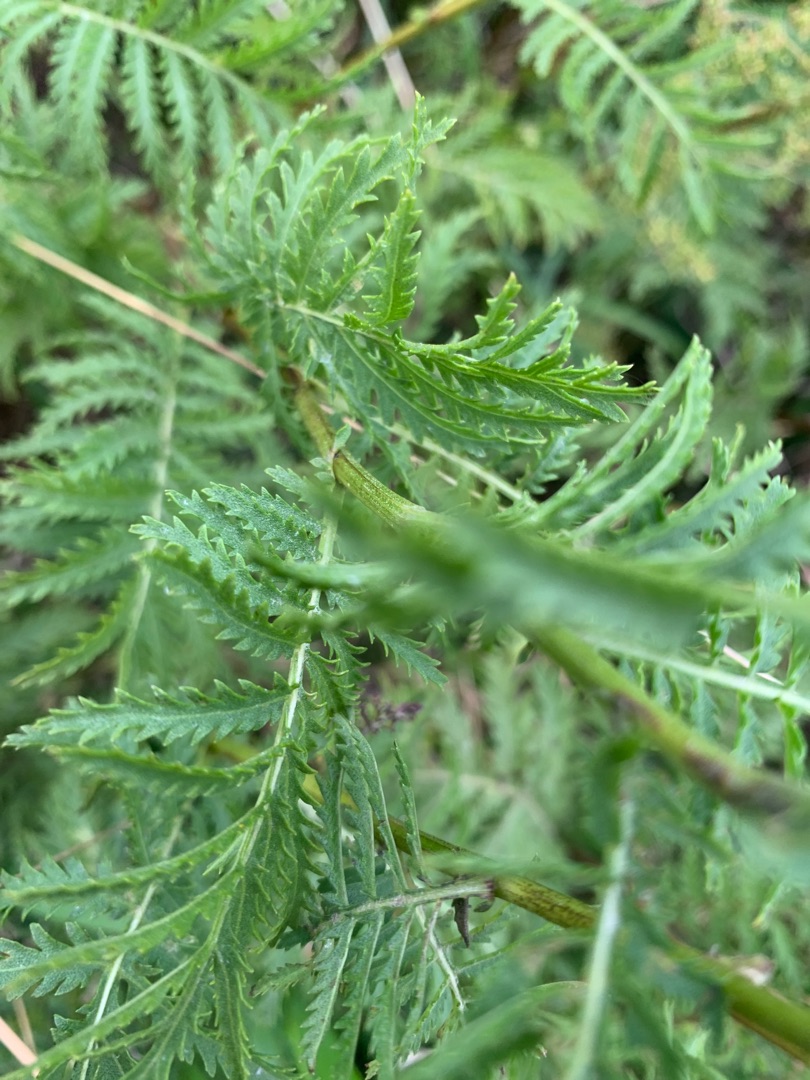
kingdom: Plantae
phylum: Tracheophyta
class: Magnoliopsida
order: Asterales
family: Asteraceae
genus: Tanacetum
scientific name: Tanacetum vulgare
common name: Rejnfan
